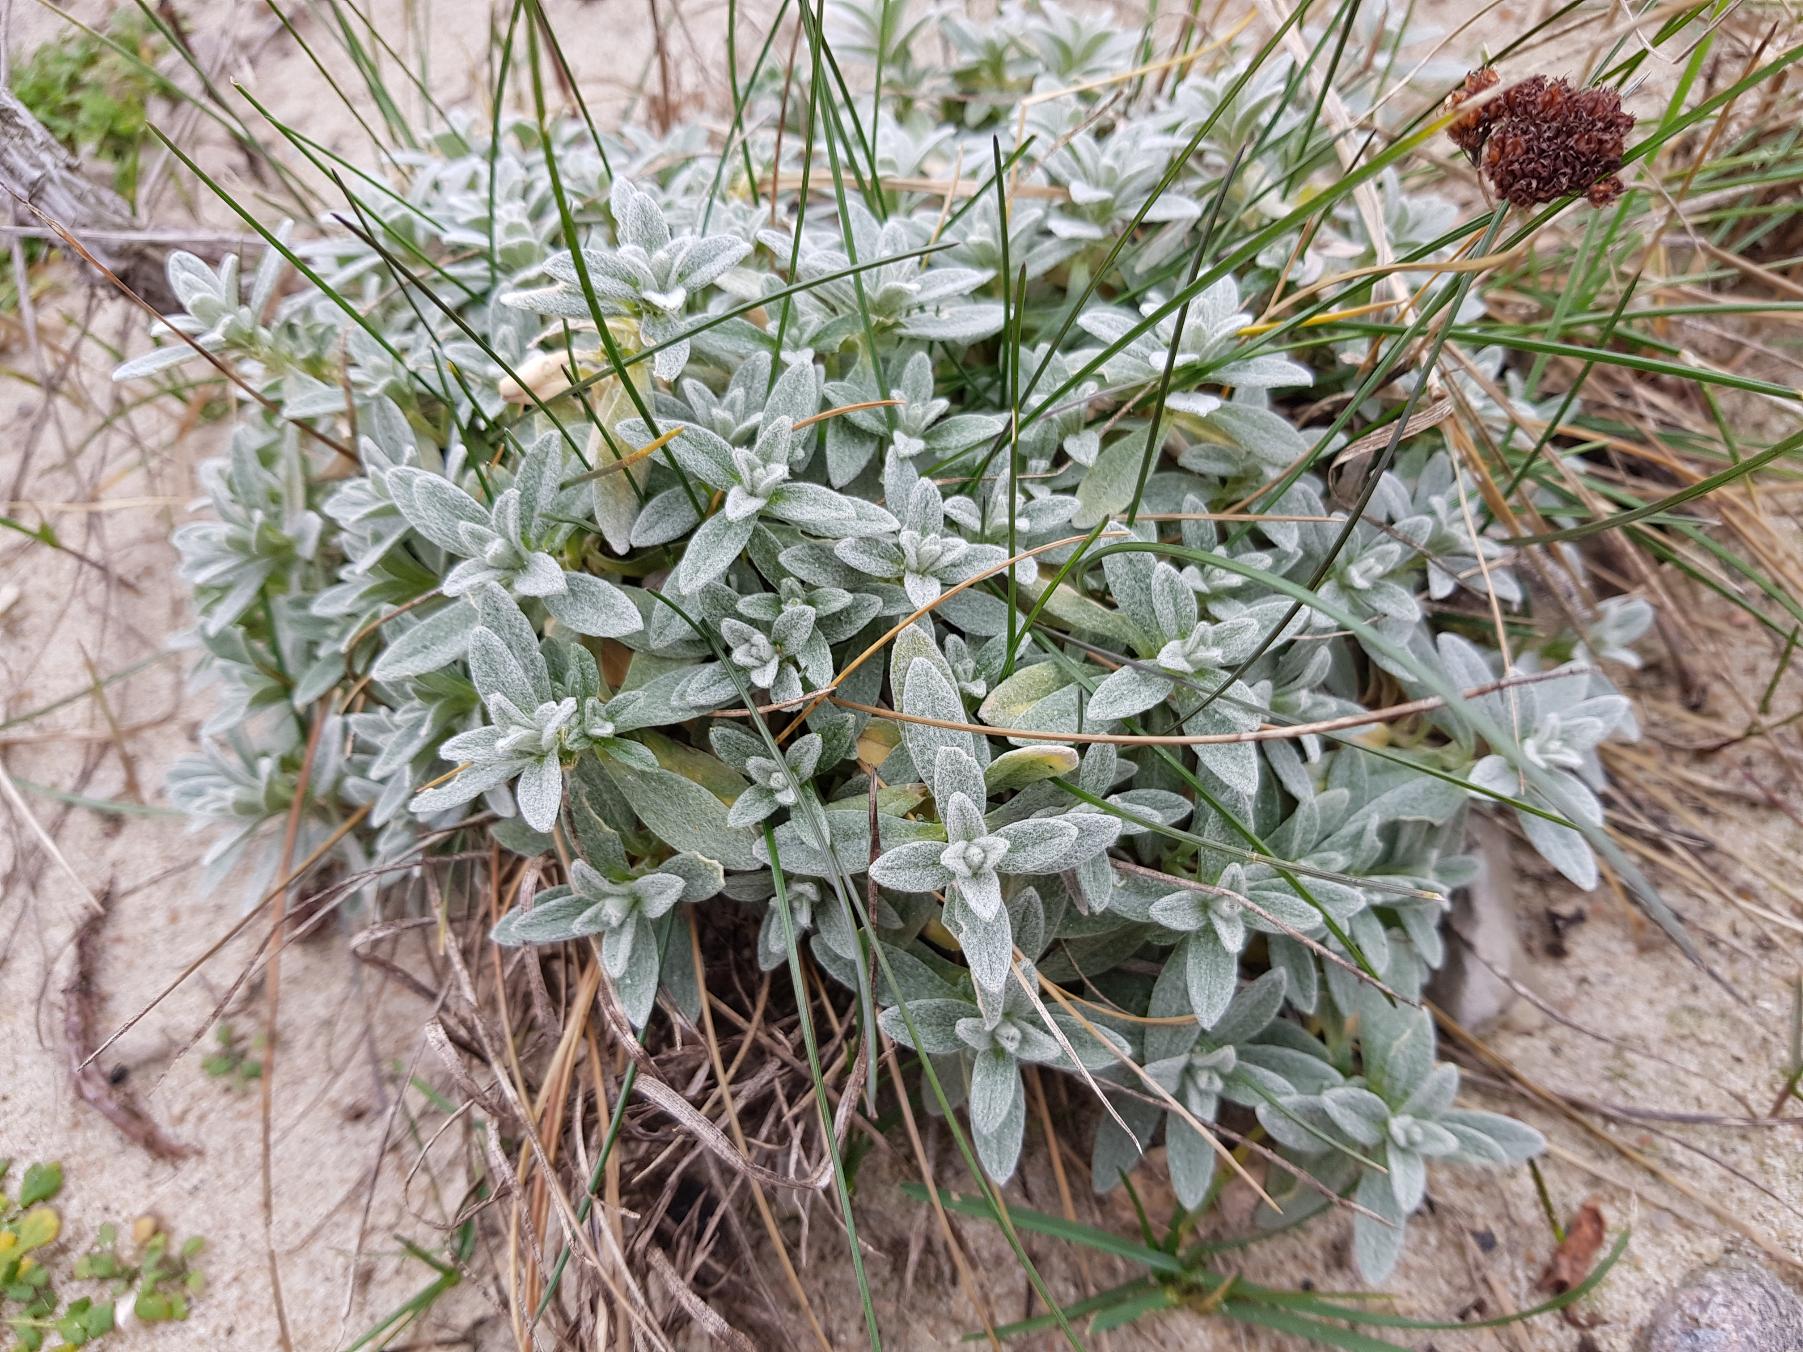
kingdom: Plantae
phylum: Tracheophyta
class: Magnoliopsida
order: Caryophyllales
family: Caryophyllaceae
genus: Cerastium
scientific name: Cerastium tomentosum
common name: Filtet hønsetarm
